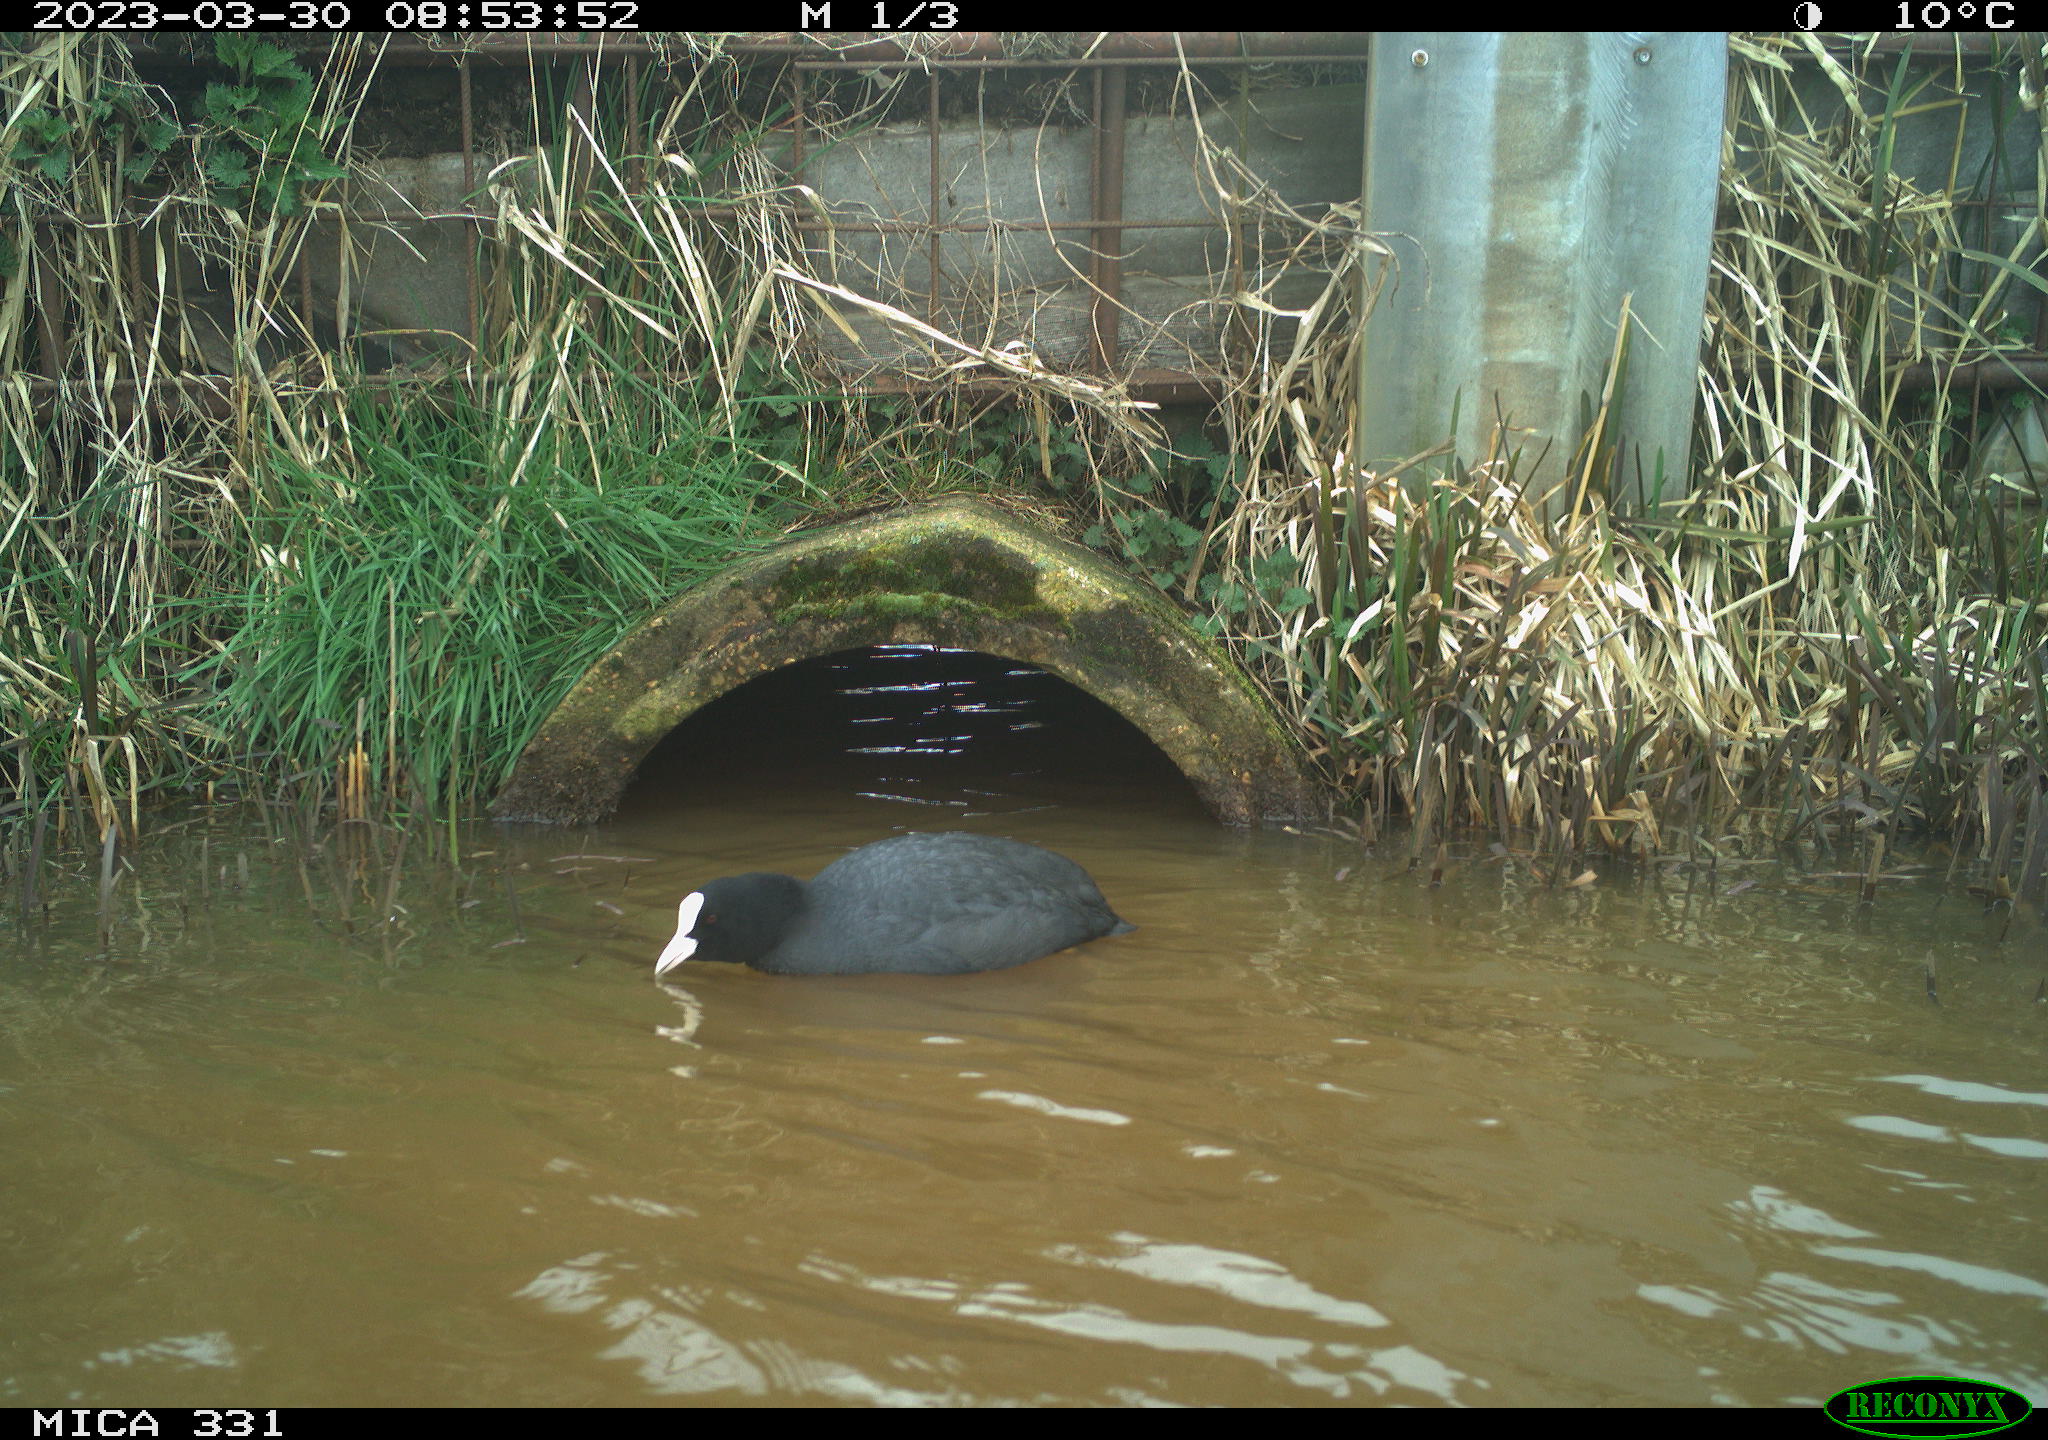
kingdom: Animalia
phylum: Chordata
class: Aves
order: Gruiformes
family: Rallidae
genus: Fulica
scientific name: Fulica atra
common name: Eurasian coot
